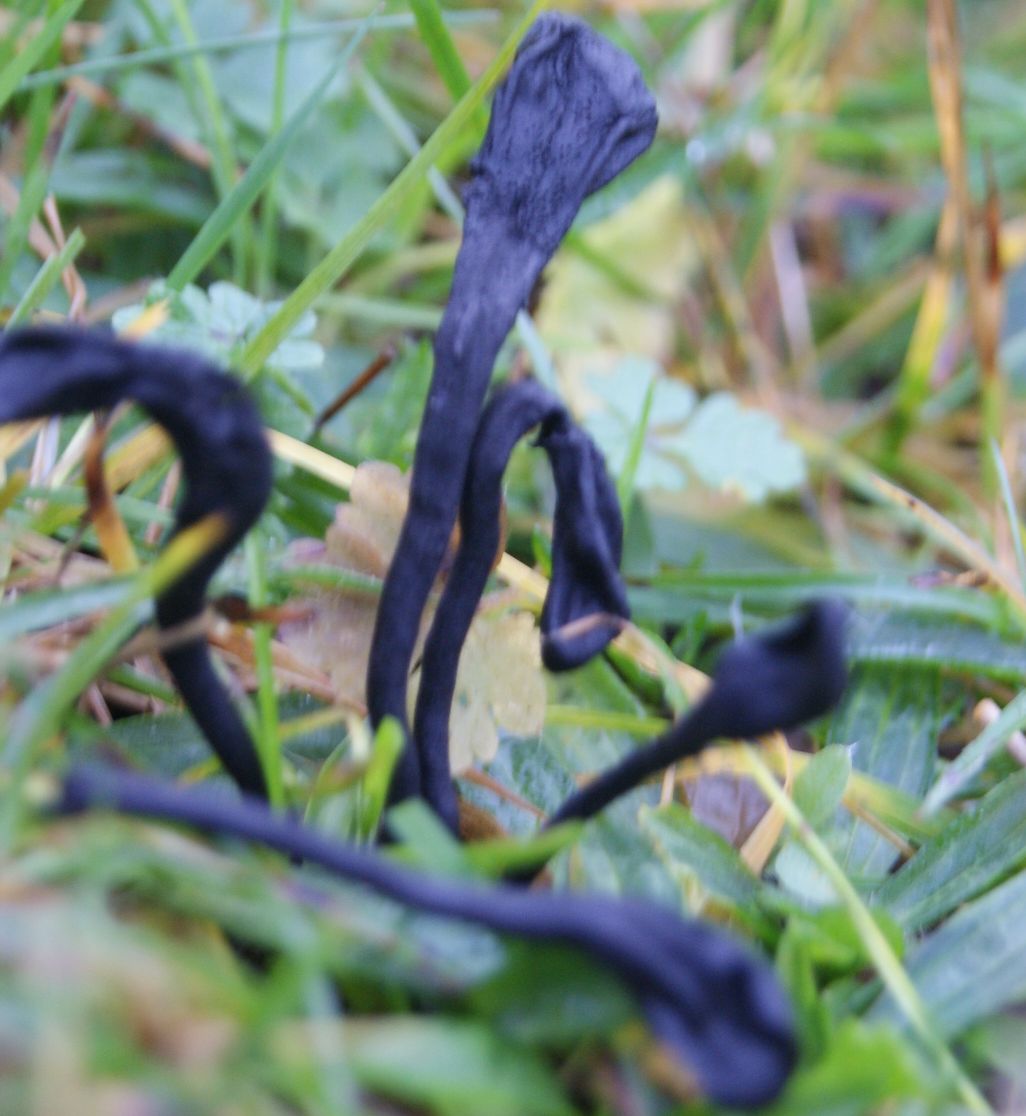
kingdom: Fungi
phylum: Ascomycota
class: Geoglossomycetes
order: Geoglossales
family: Geoglossaceae
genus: Trichoglossum
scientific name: Trichoglossum hirsutum
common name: håret jordtunge
